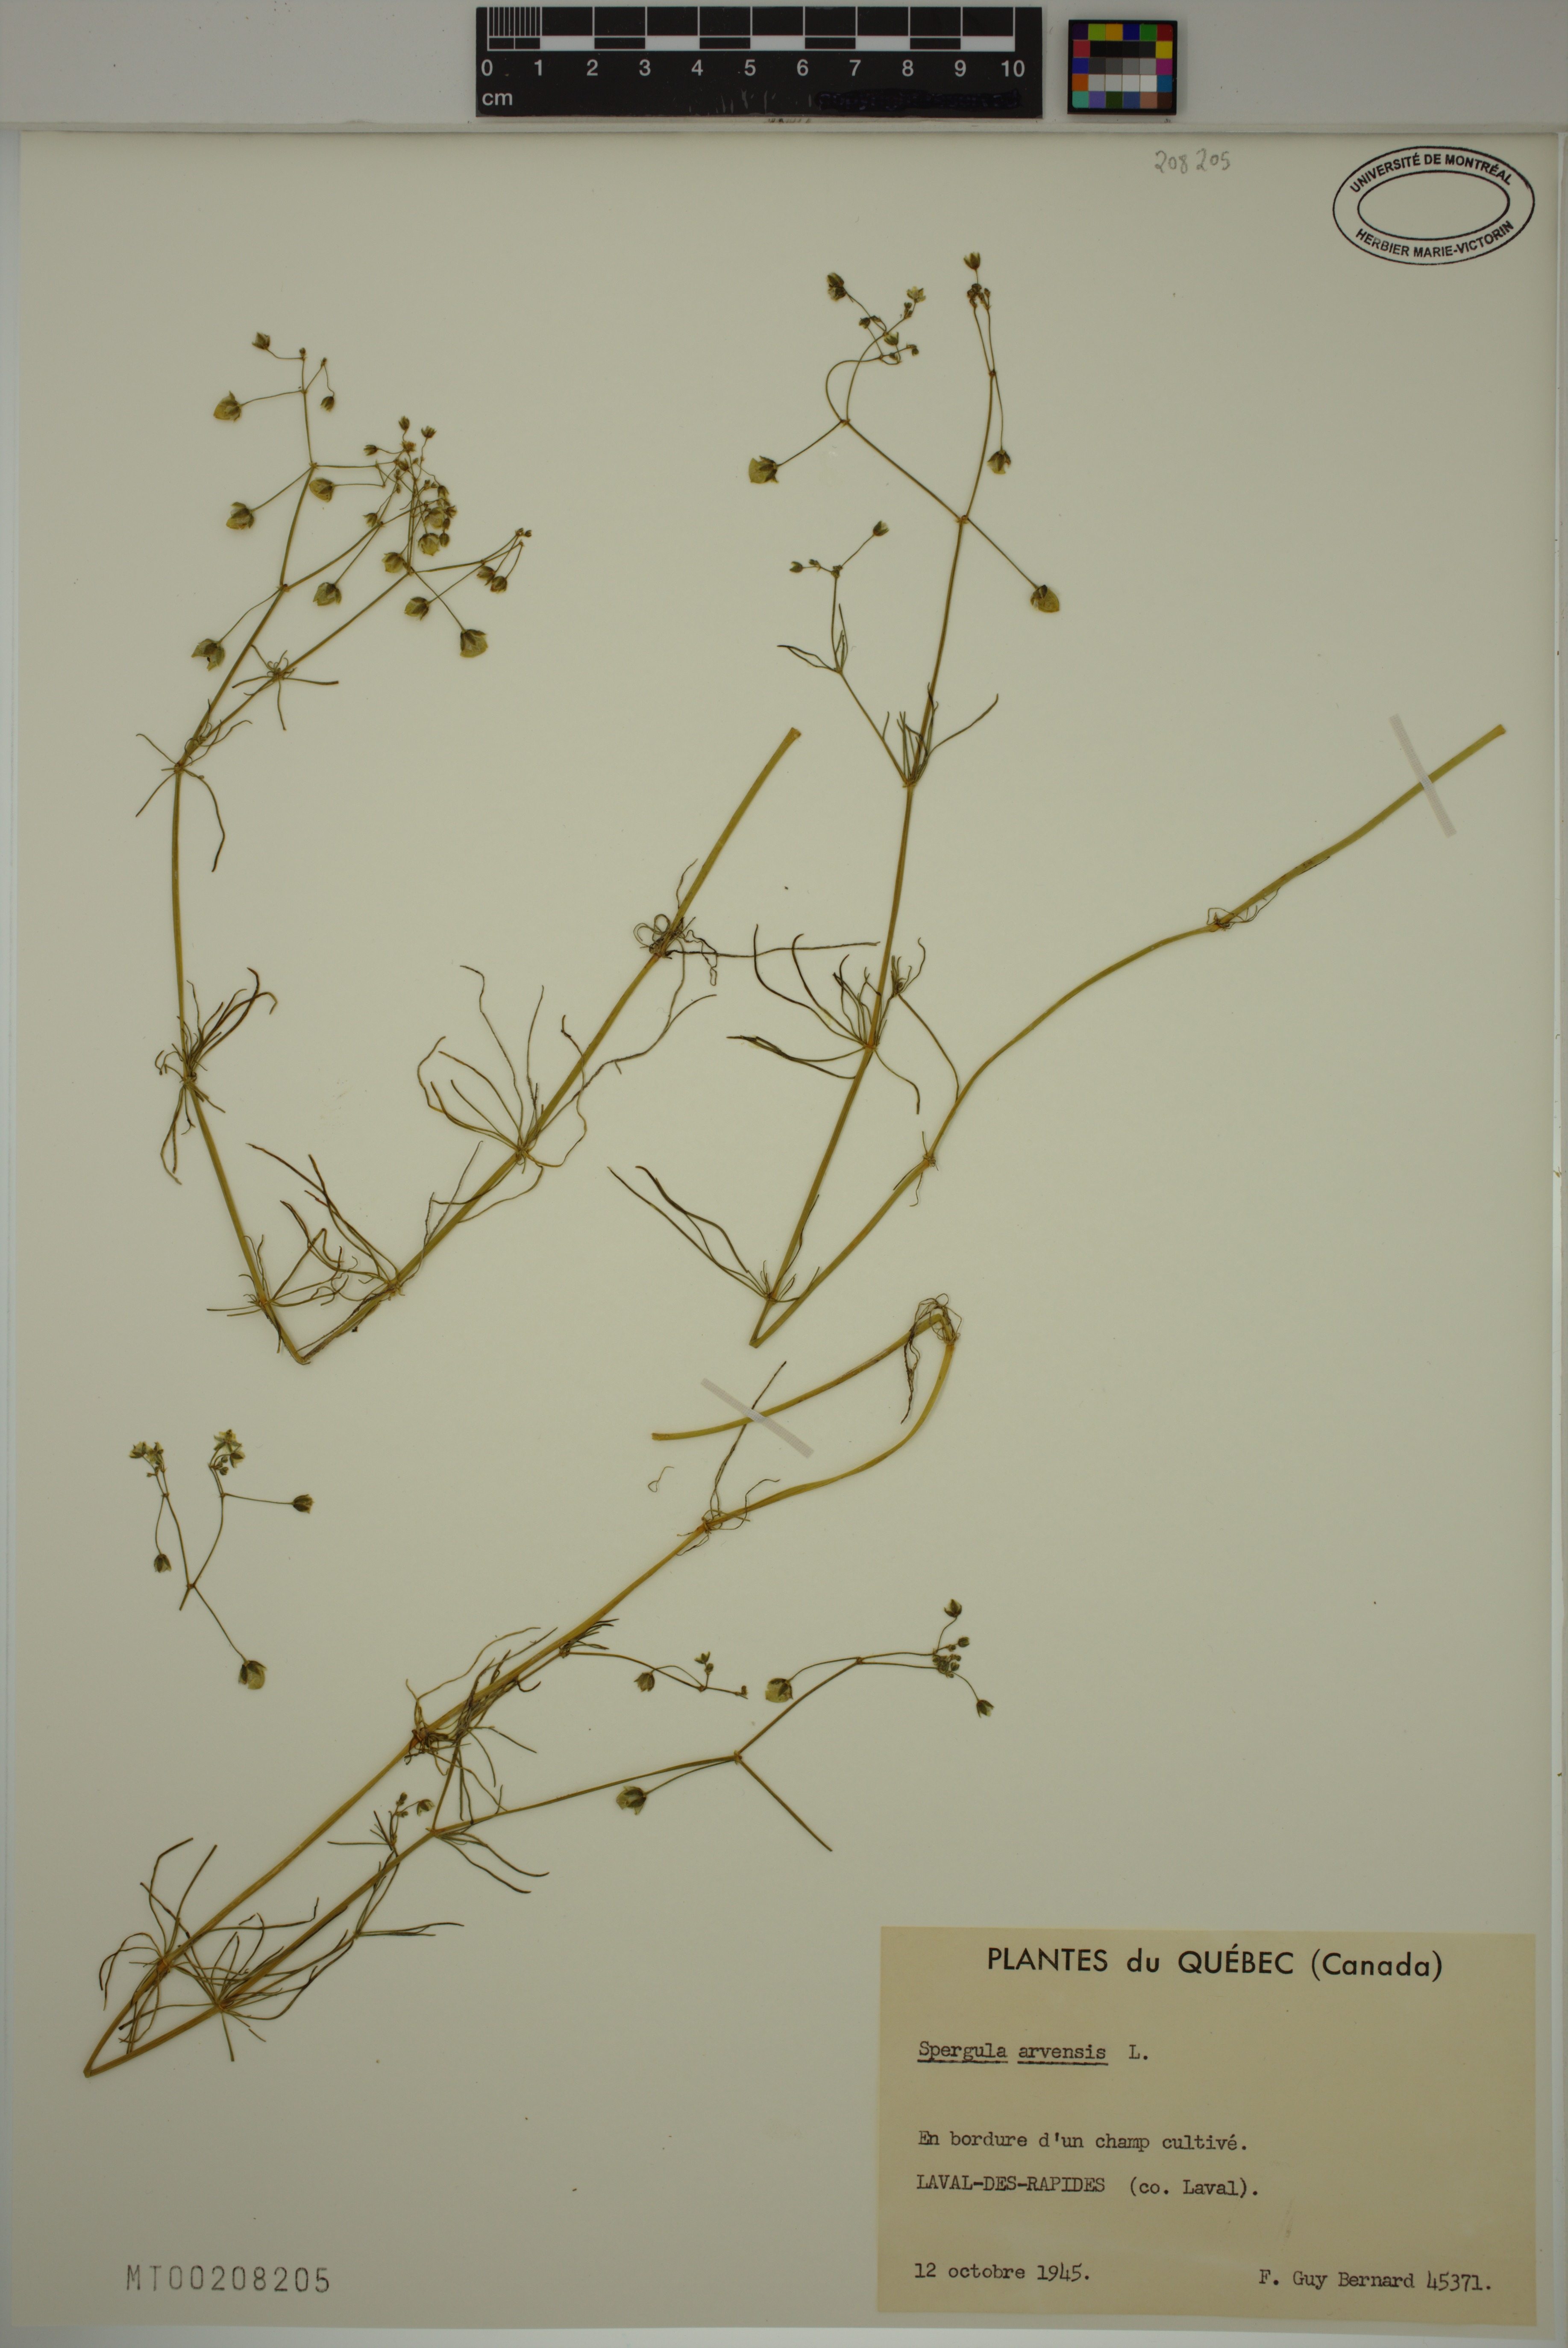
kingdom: Plantae
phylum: Tracheophyta
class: Magnoliopsida
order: Caryophyllales
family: Caryophyllaceae
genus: Spergula
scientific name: Spergula arvensis
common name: Corn spurrey
